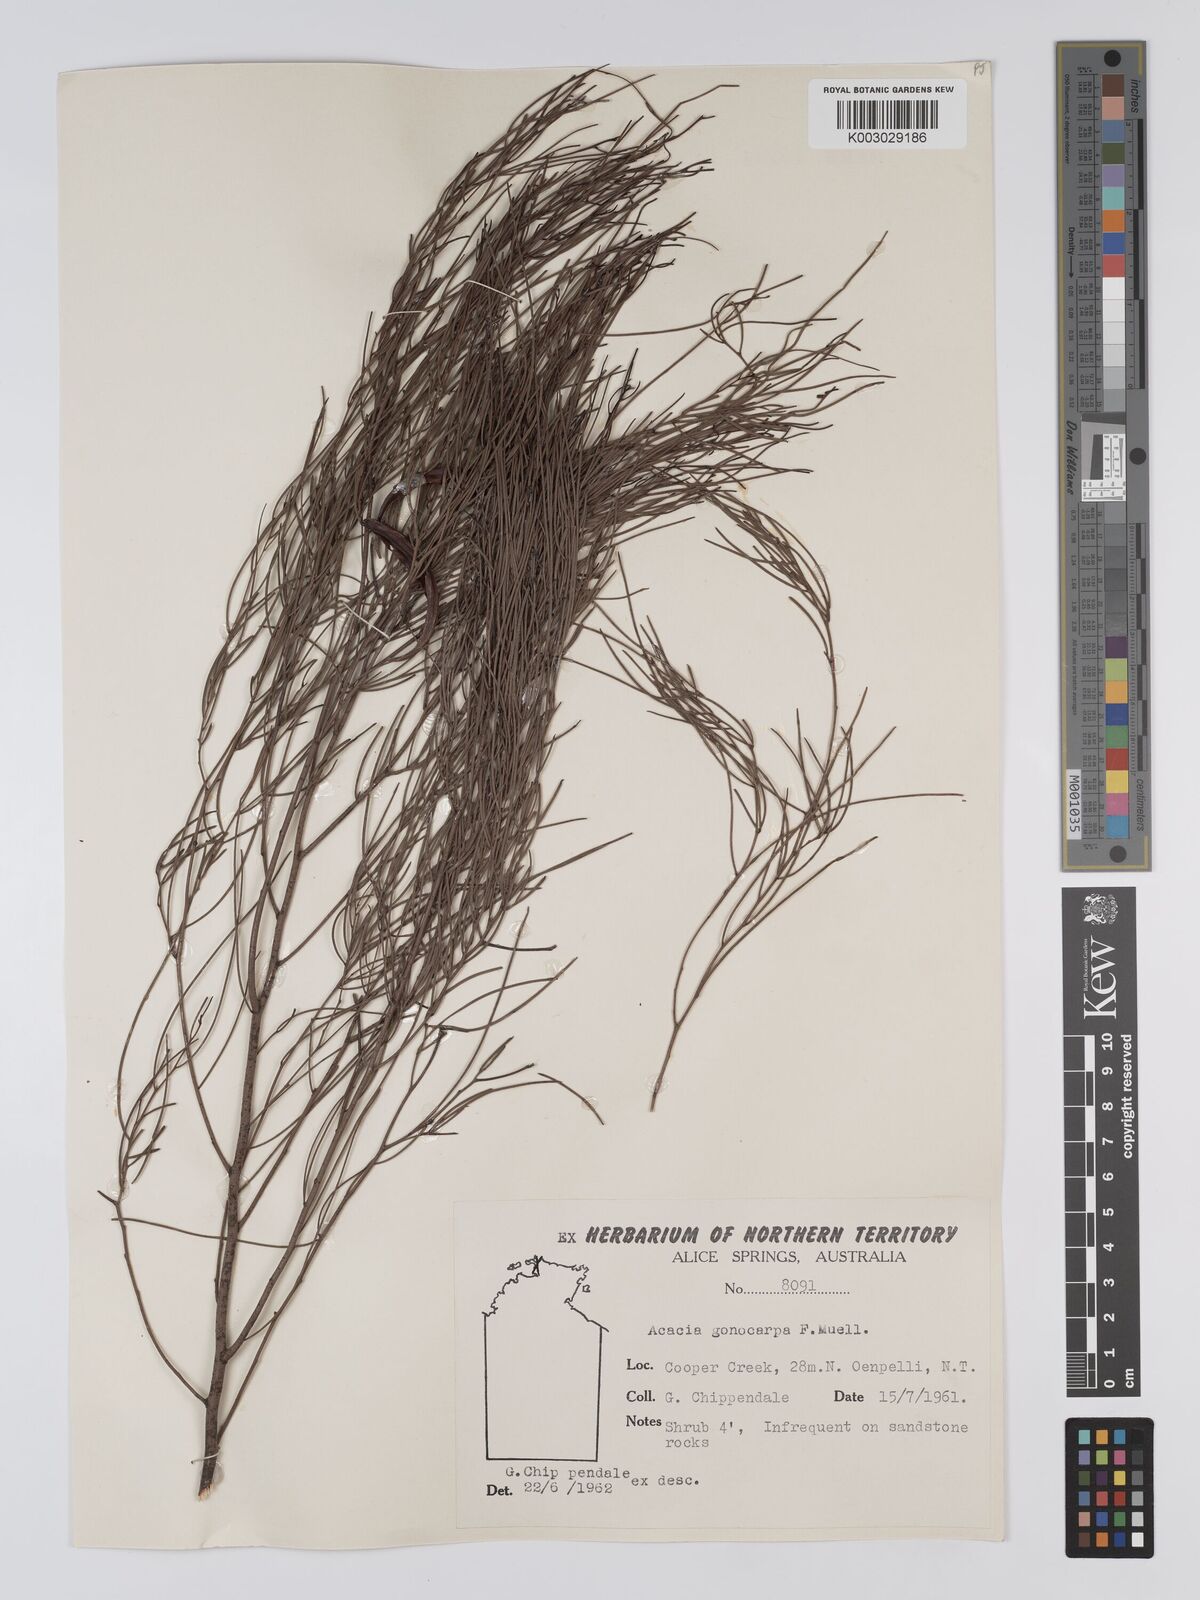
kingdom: Plantae
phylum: Tracheophyta
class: Magnoliopsida
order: Fabales
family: Fabaceae
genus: Acacia
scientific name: Acacia gonocarpa
